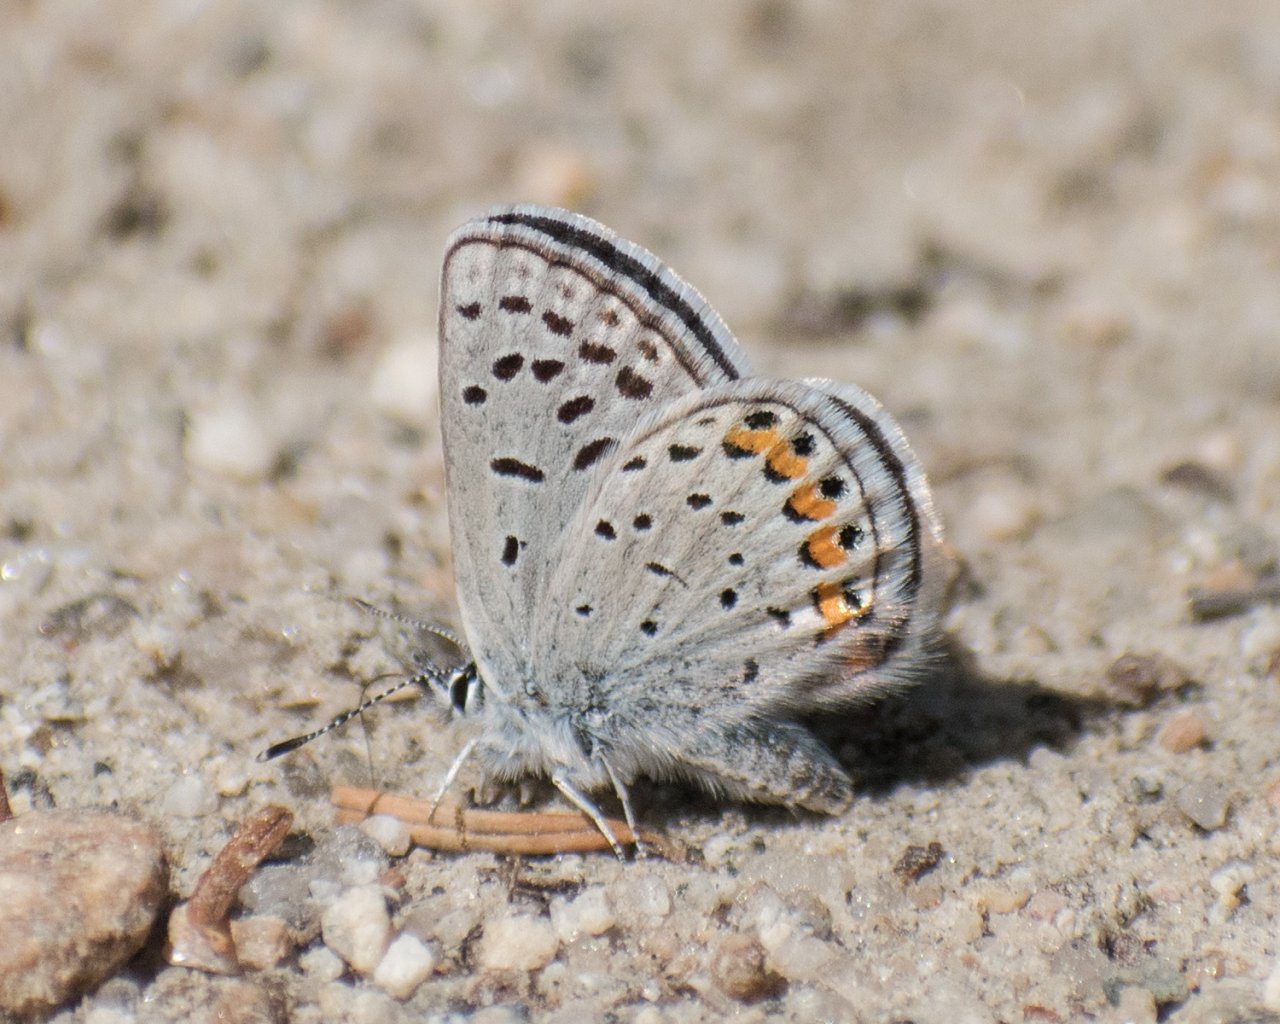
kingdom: Animalia
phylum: Arthropoda
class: Insecta
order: Lepidoptera
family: Lycaenidae
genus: Plebejus
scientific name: Plebejus lupini
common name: Lupine Blue
